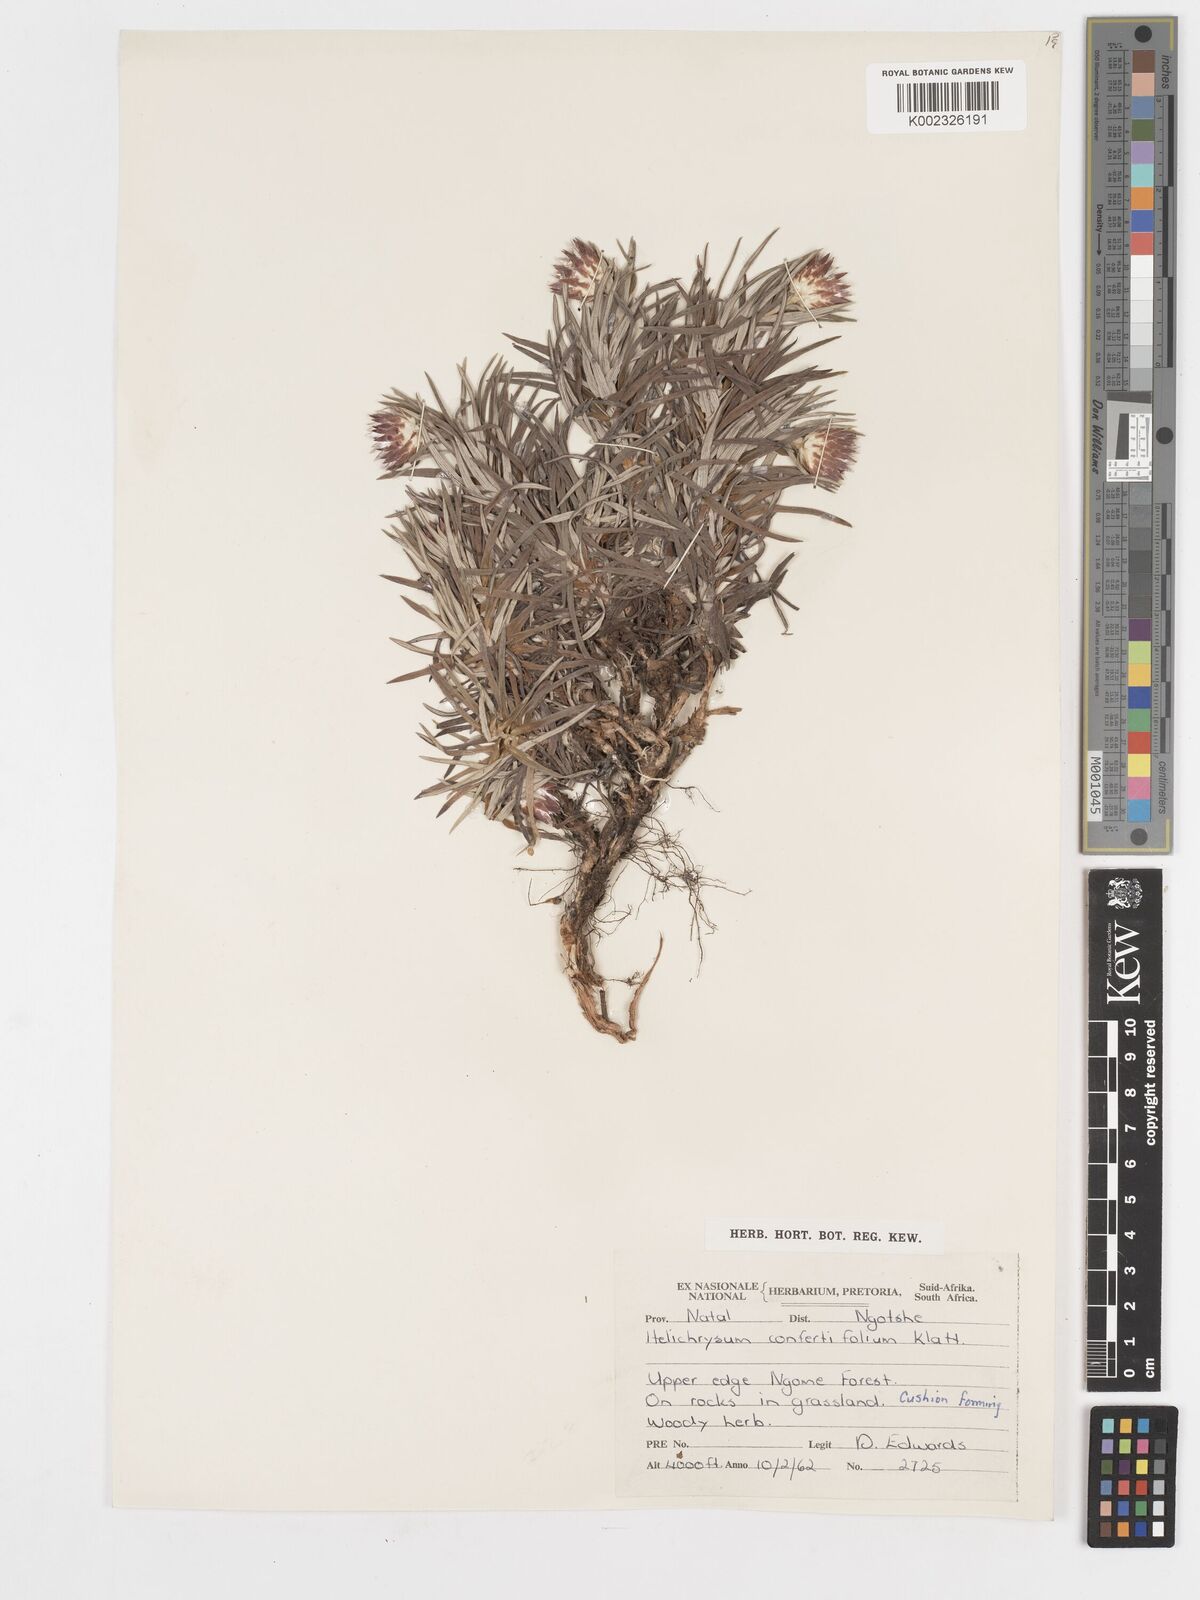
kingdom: Plantae
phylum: Tracheophyta
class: Magnoliopsida
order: Asterales
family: Asteraceae
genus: Helichrysum
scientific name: Helichrysum confertifolium
